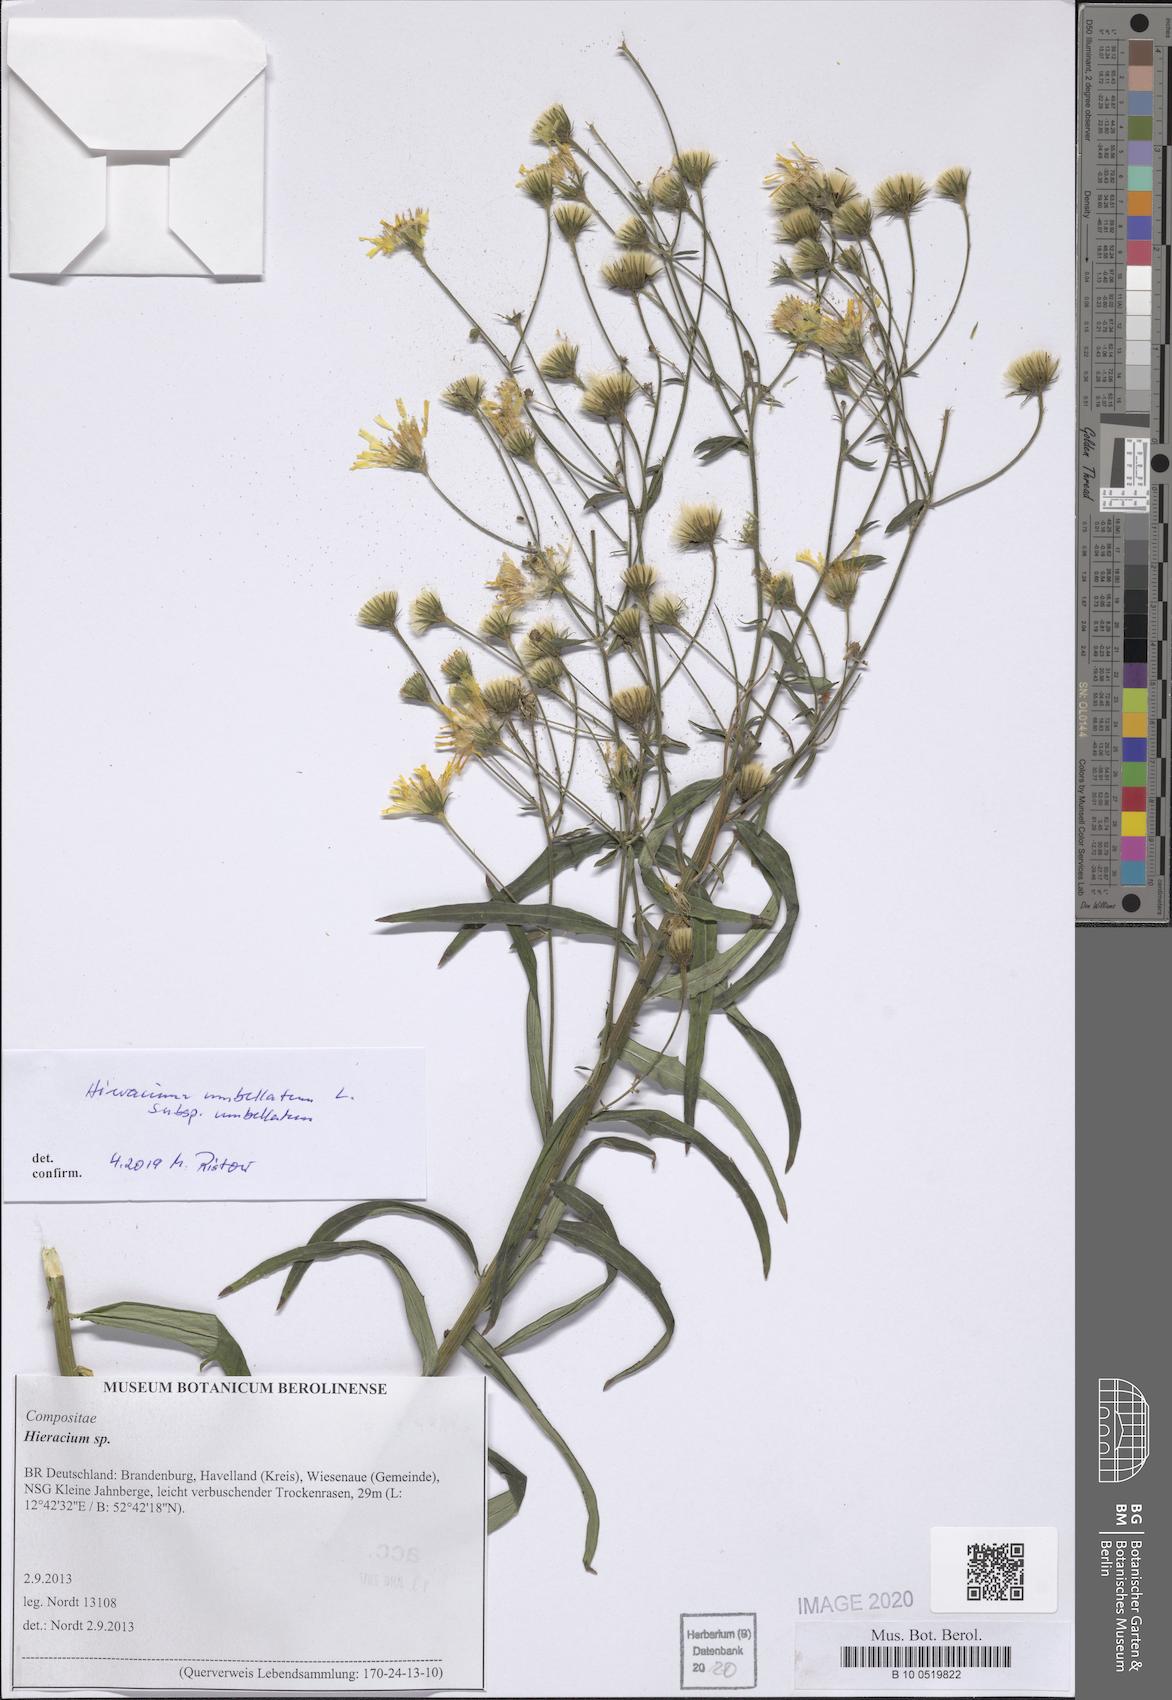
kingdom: Plantae
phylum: Tracheophyta
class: Magnoliopsida
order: Asterales
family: Asteraceae
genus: Hieracium
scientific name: Hieracium umbellatum
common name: Northern hawkweed
